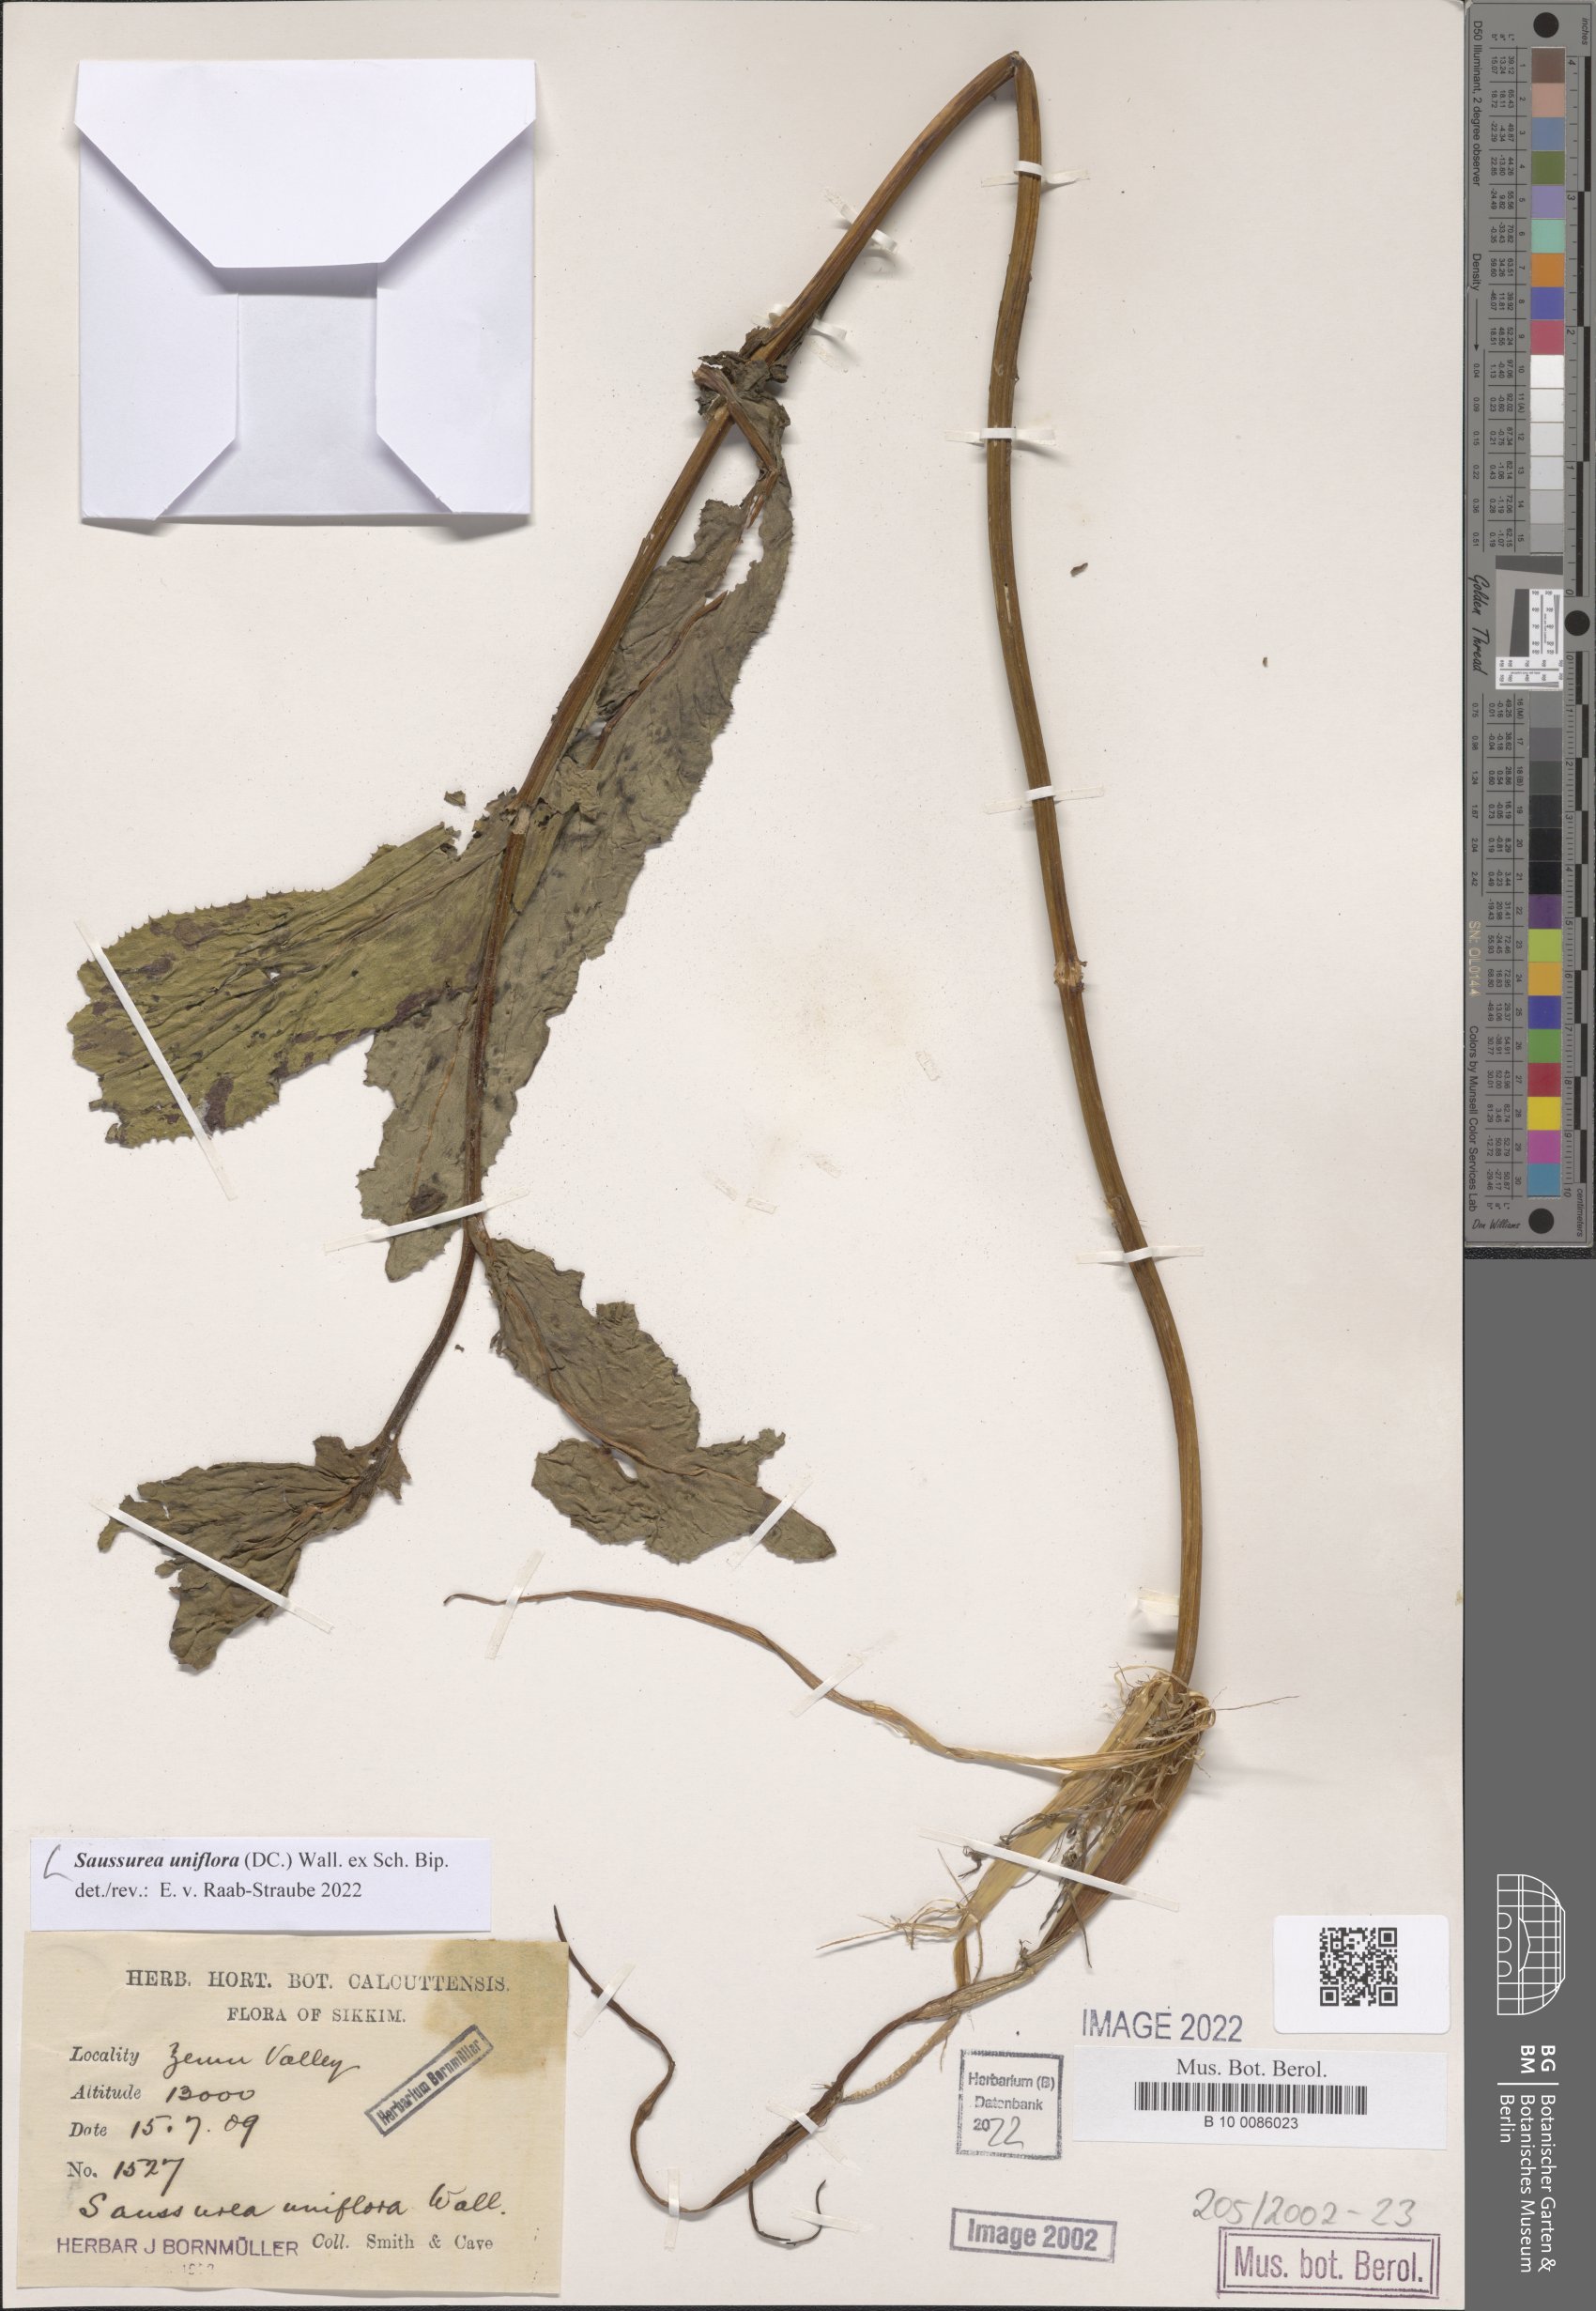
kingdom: Plantae
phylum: Tracheophyta
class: Magnoliopsida
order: Asterales
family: Asteraceae
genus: Saussurea
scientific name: Saussurea uniflora
